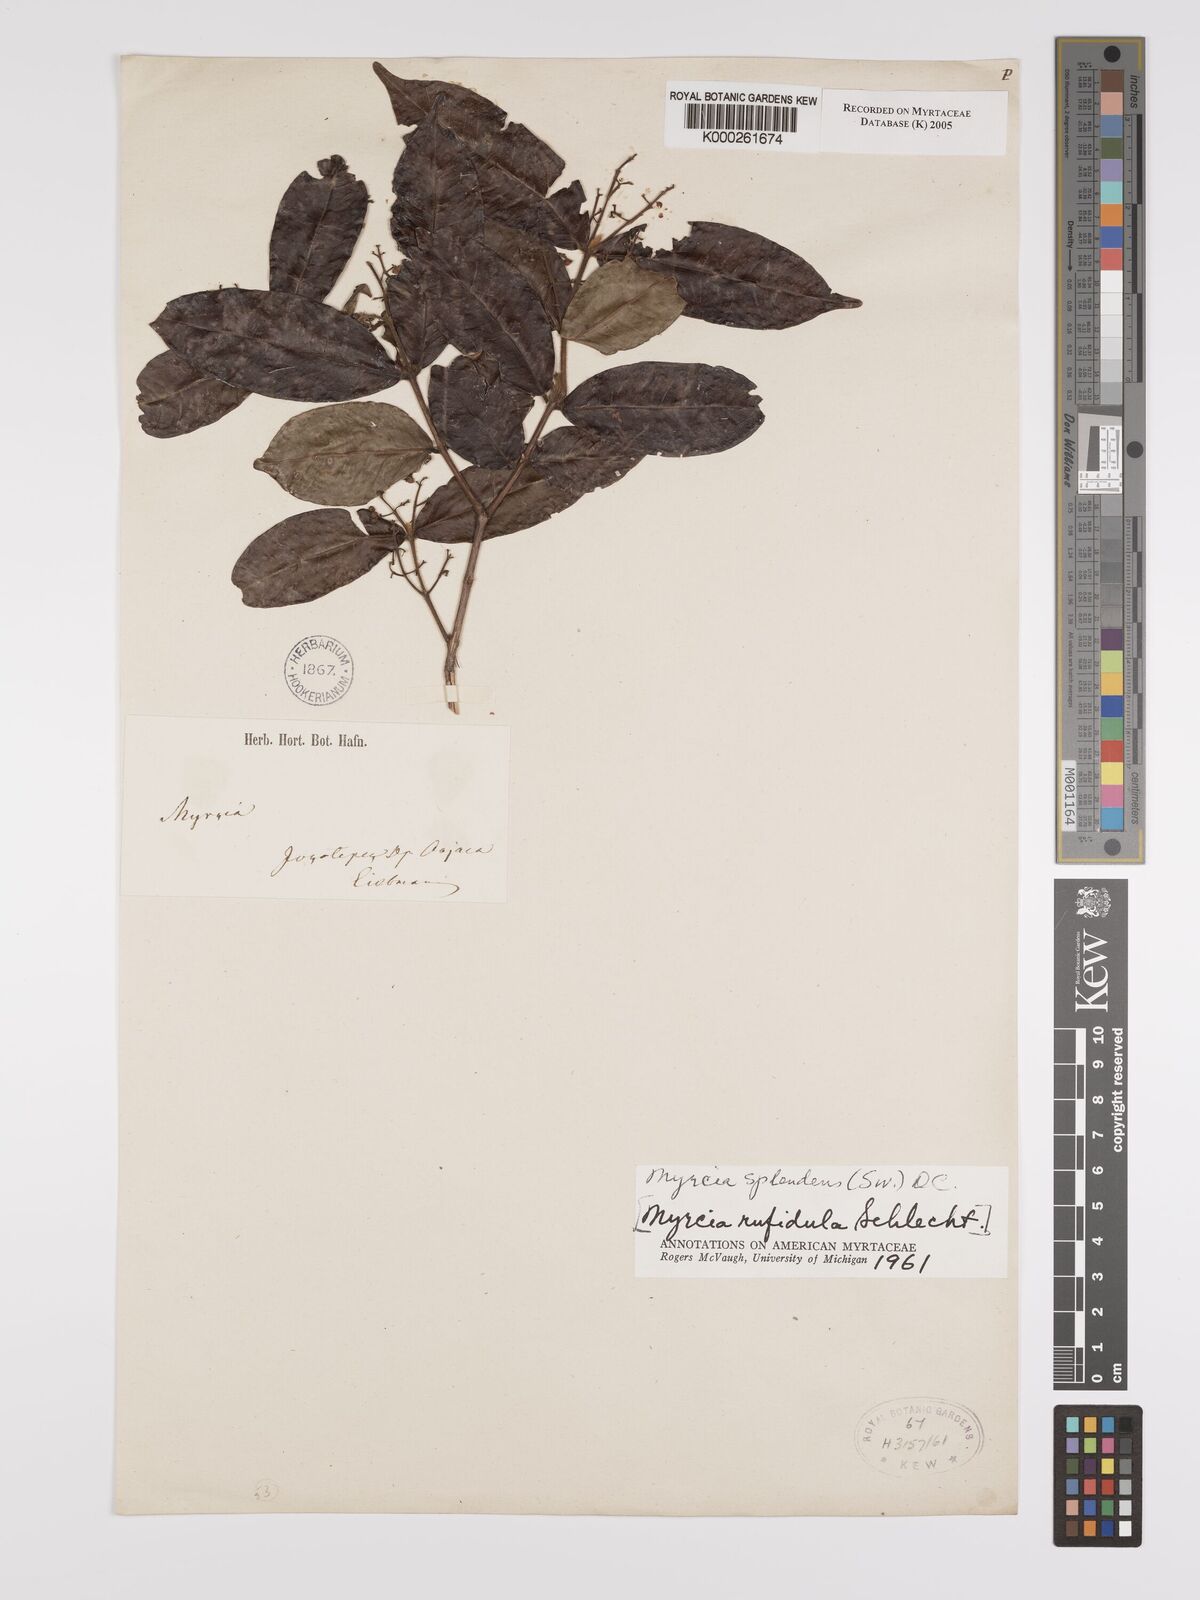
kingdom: Plantae
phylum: Tracheophyta
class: Magnoliopsida
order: Myrtales
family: Myrtaceae
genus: Myrcia
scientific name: Myrcia splendens
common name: Surinam cherry
